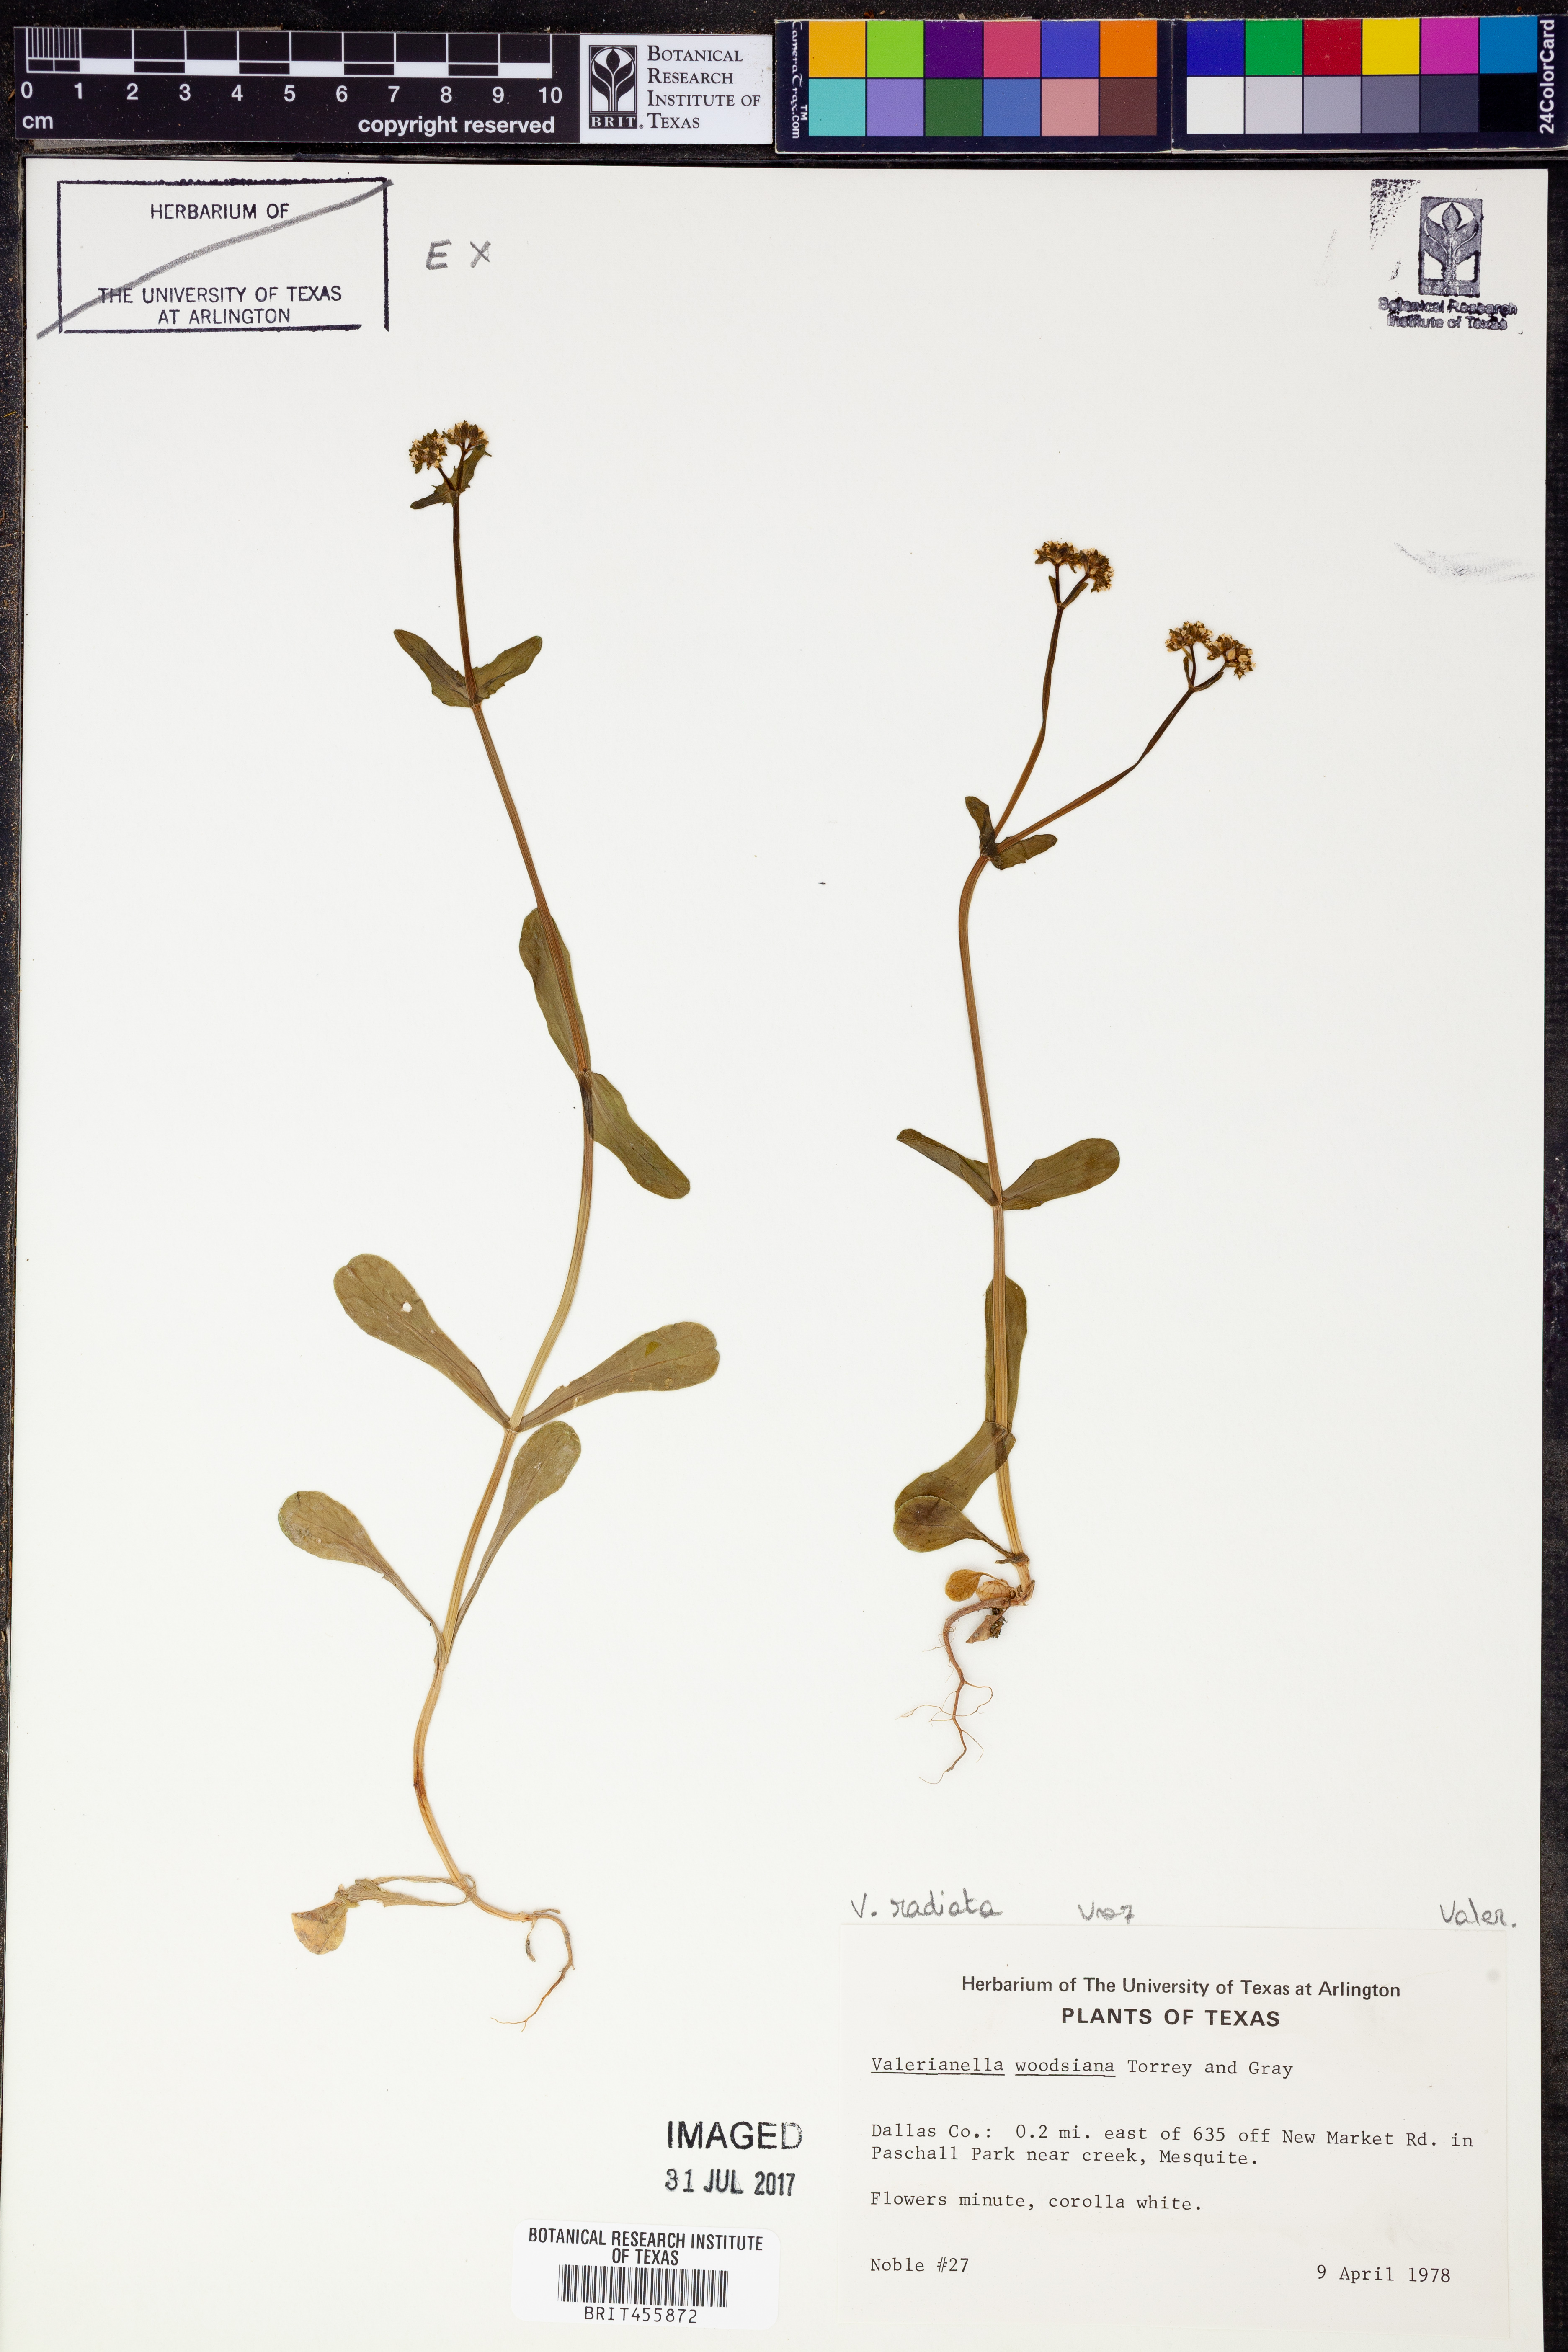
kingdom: Plantae
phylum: Tracheophyta
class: Magnoliopsida
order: Dipsacales
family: Caprifoliaceae
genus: Valerianella
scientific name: Valerianella radiata
